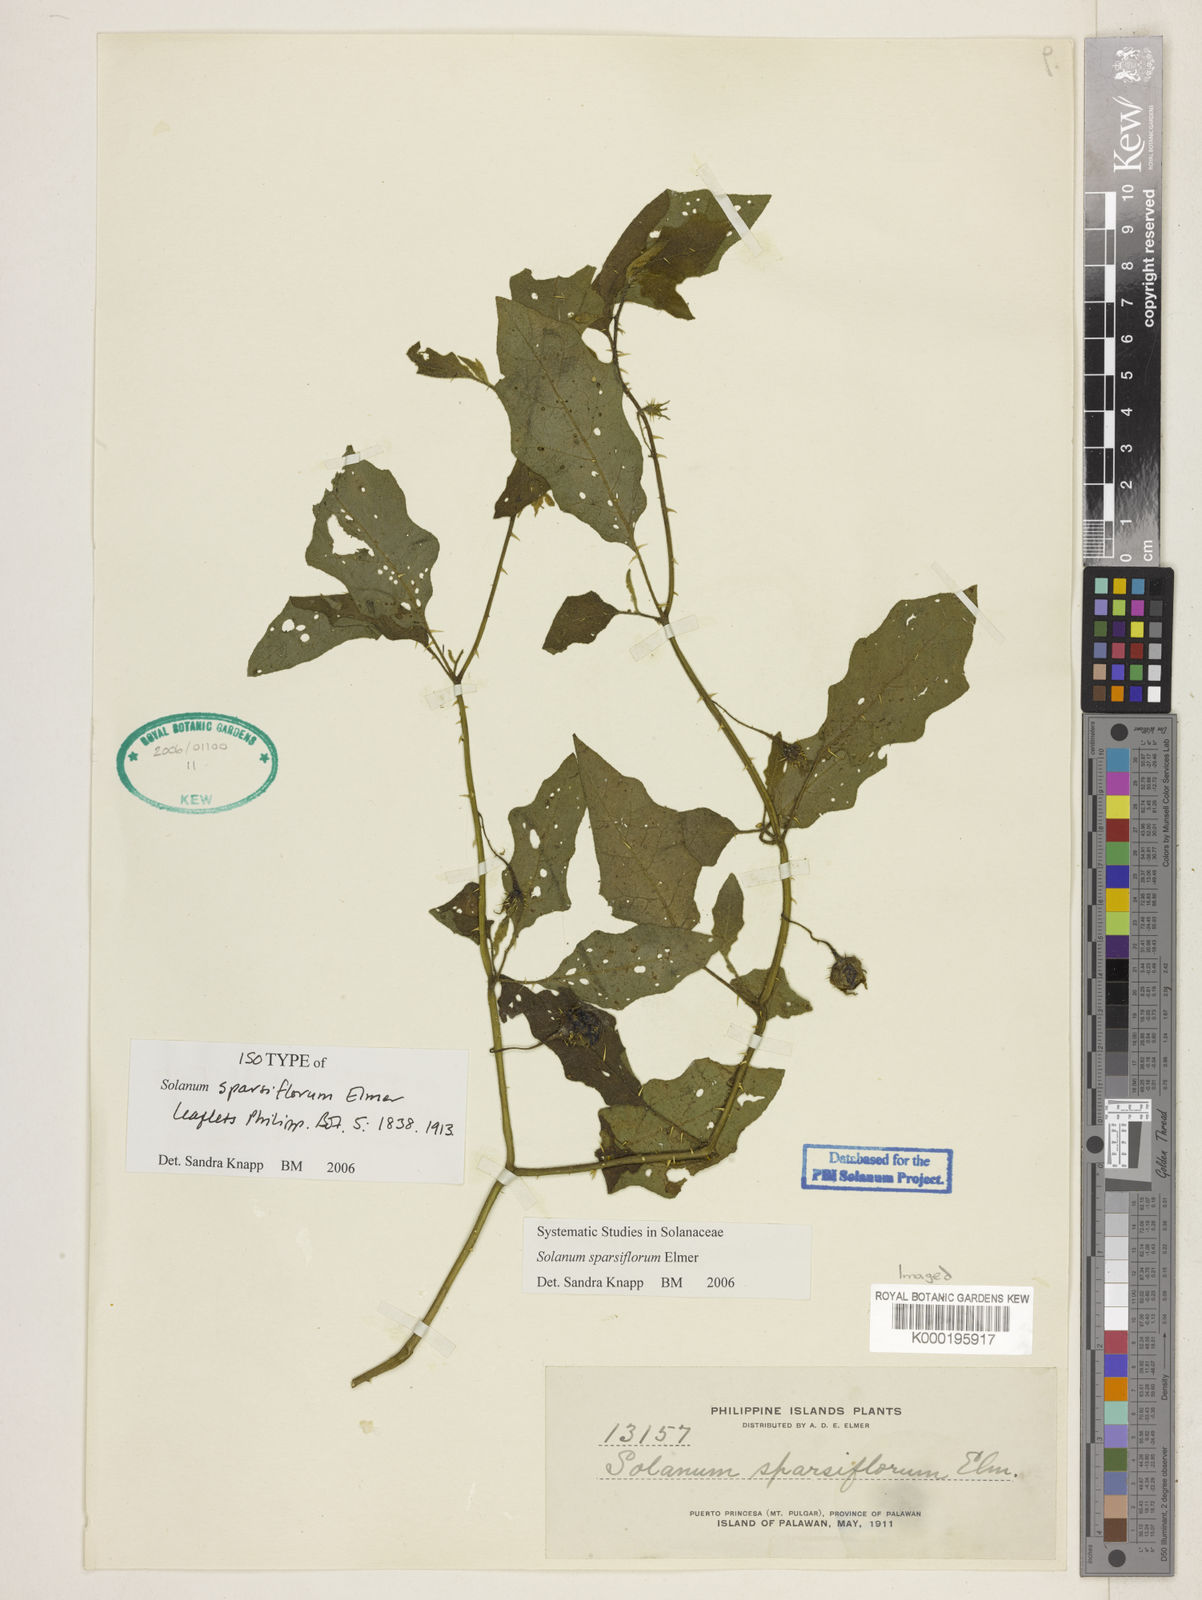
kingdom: Plantae
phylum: Tracheophyta
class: Magnoliopsida
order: Solanales
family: Solanaceae
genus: Solanum
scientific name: Solanum cyanocarphium
